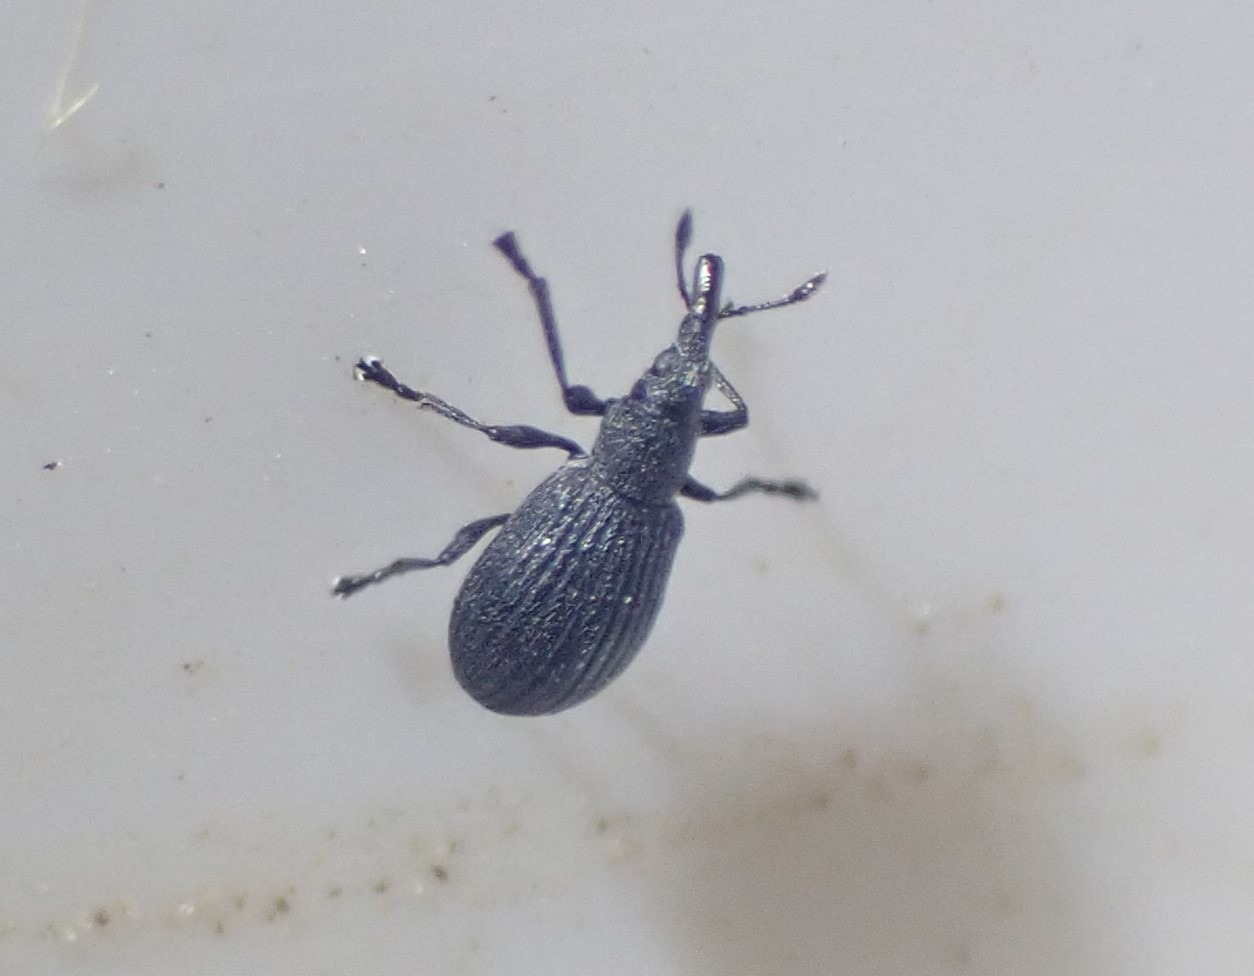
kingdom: Animalia
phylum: Arthropoda
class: Insecta
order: Coleoptera
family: Brentidae
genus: Perapion
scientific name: Perapion curtirostre
